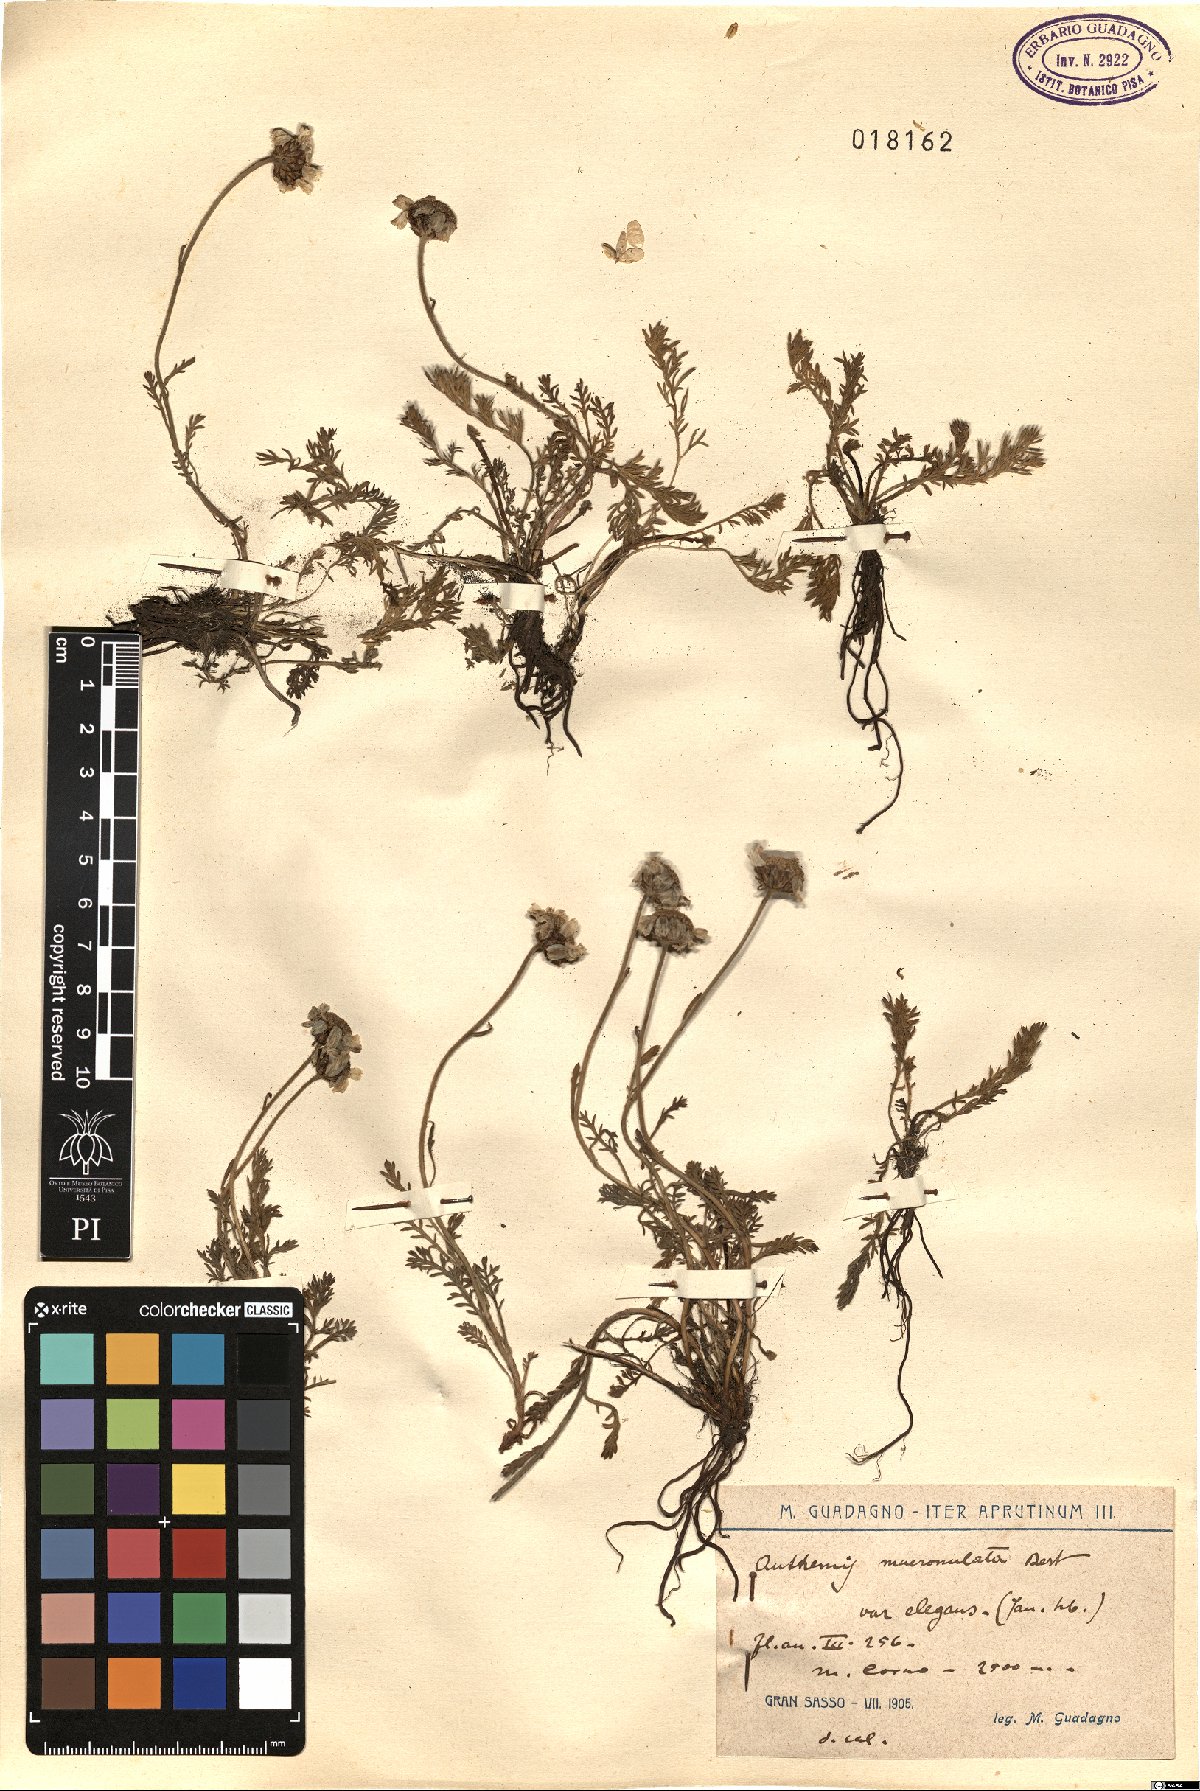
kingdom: Plantae
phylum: Tracheophyta
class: Magnoliopsida
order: Asterales
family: Asteraceae
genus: Achillea
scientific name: Achillea barrelieri
